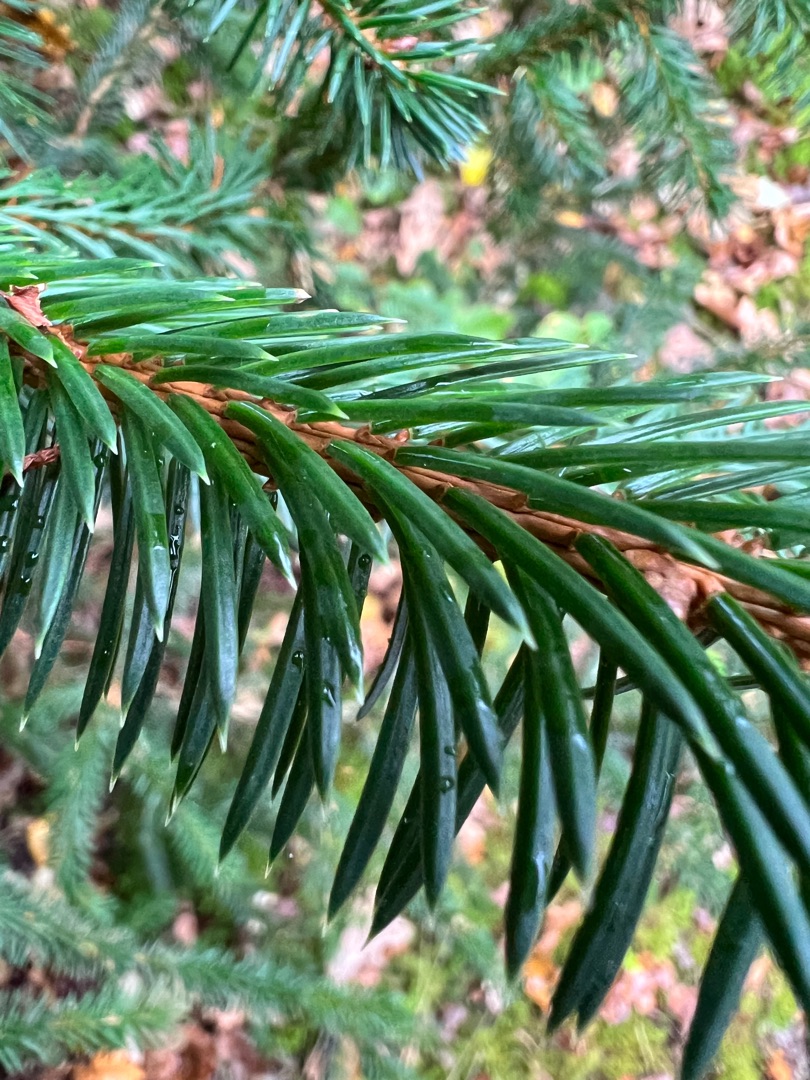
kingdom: Plantae
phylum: Tracheophyta
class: Pinopsida
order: Pinales
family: Pinaceae
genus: Picea
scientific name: Picea sitchensis
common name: Sitka-gran
